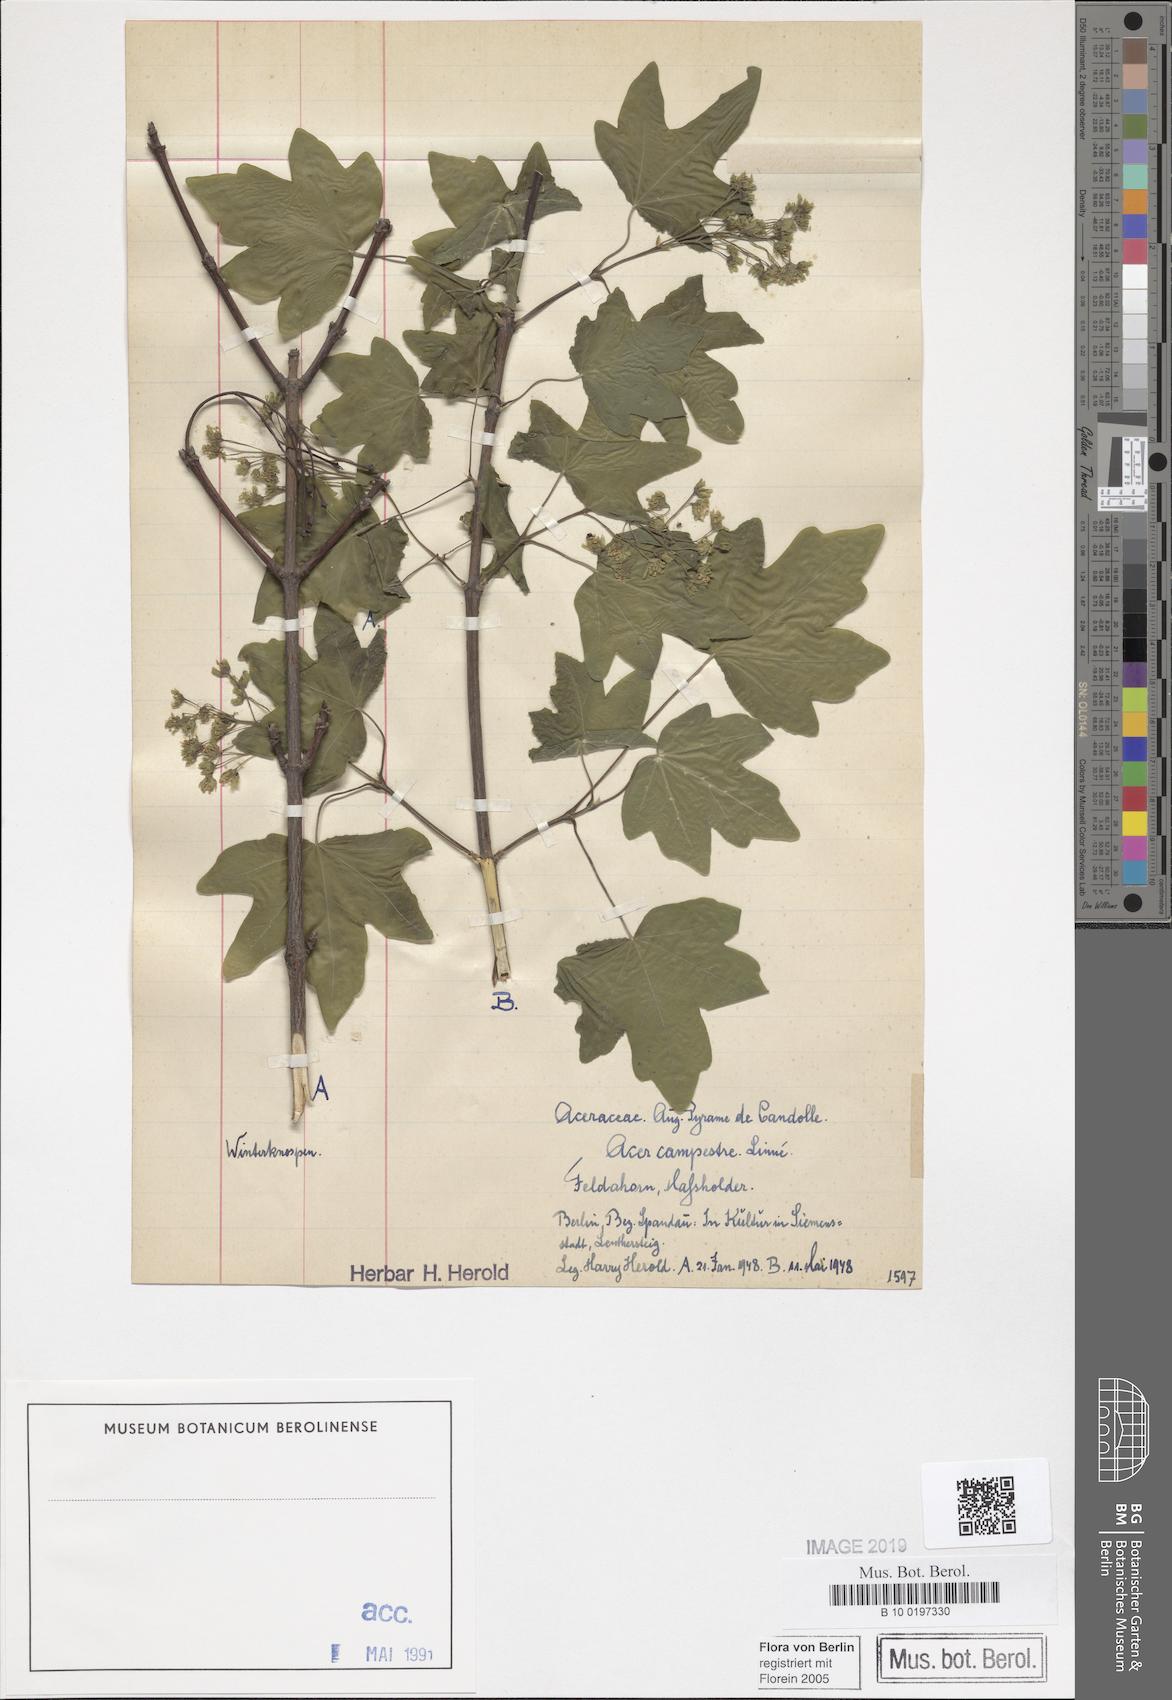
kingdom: Plantae
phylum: Tracheophyta
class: Magnoliopsida
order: Sapindales
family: Sapindaceae
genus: Acer
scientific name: Acer campestre
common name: Field maple
